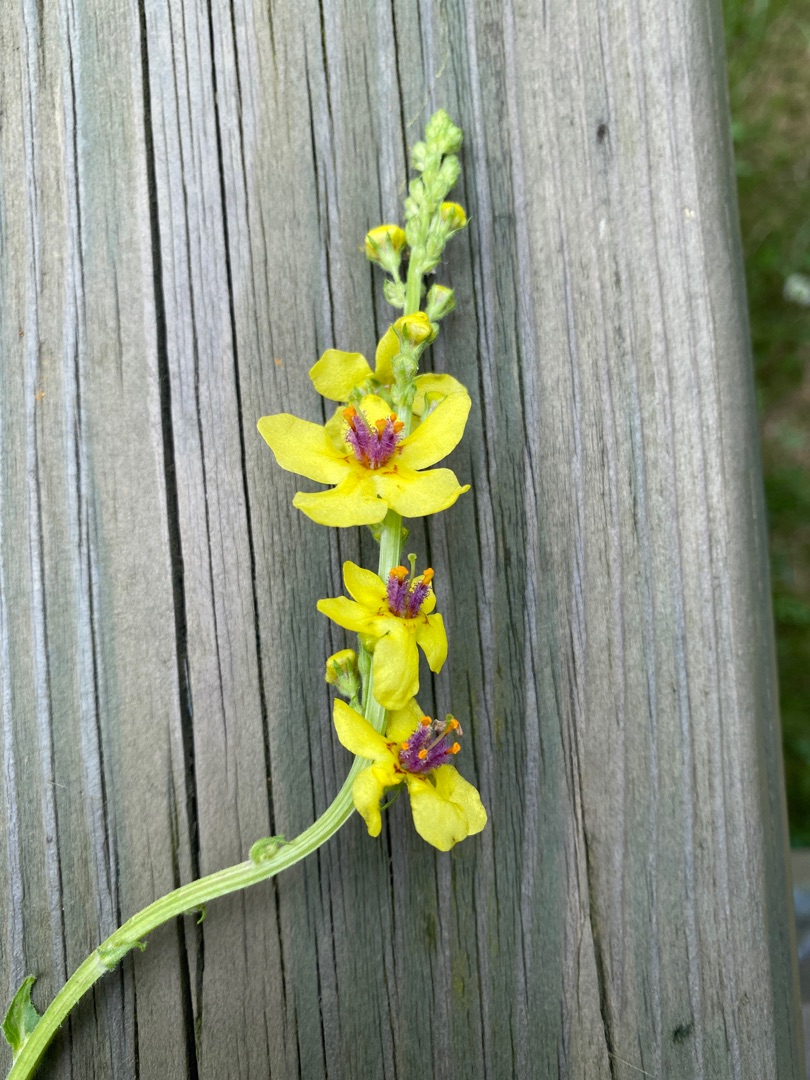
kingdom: Plantae
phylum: Tracheophyta
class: Magnoliopsida
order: Lamiales
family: Scrophulariaceae
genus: Verbascum
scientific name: Verbascum nigrum
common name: Mørk kongelys
